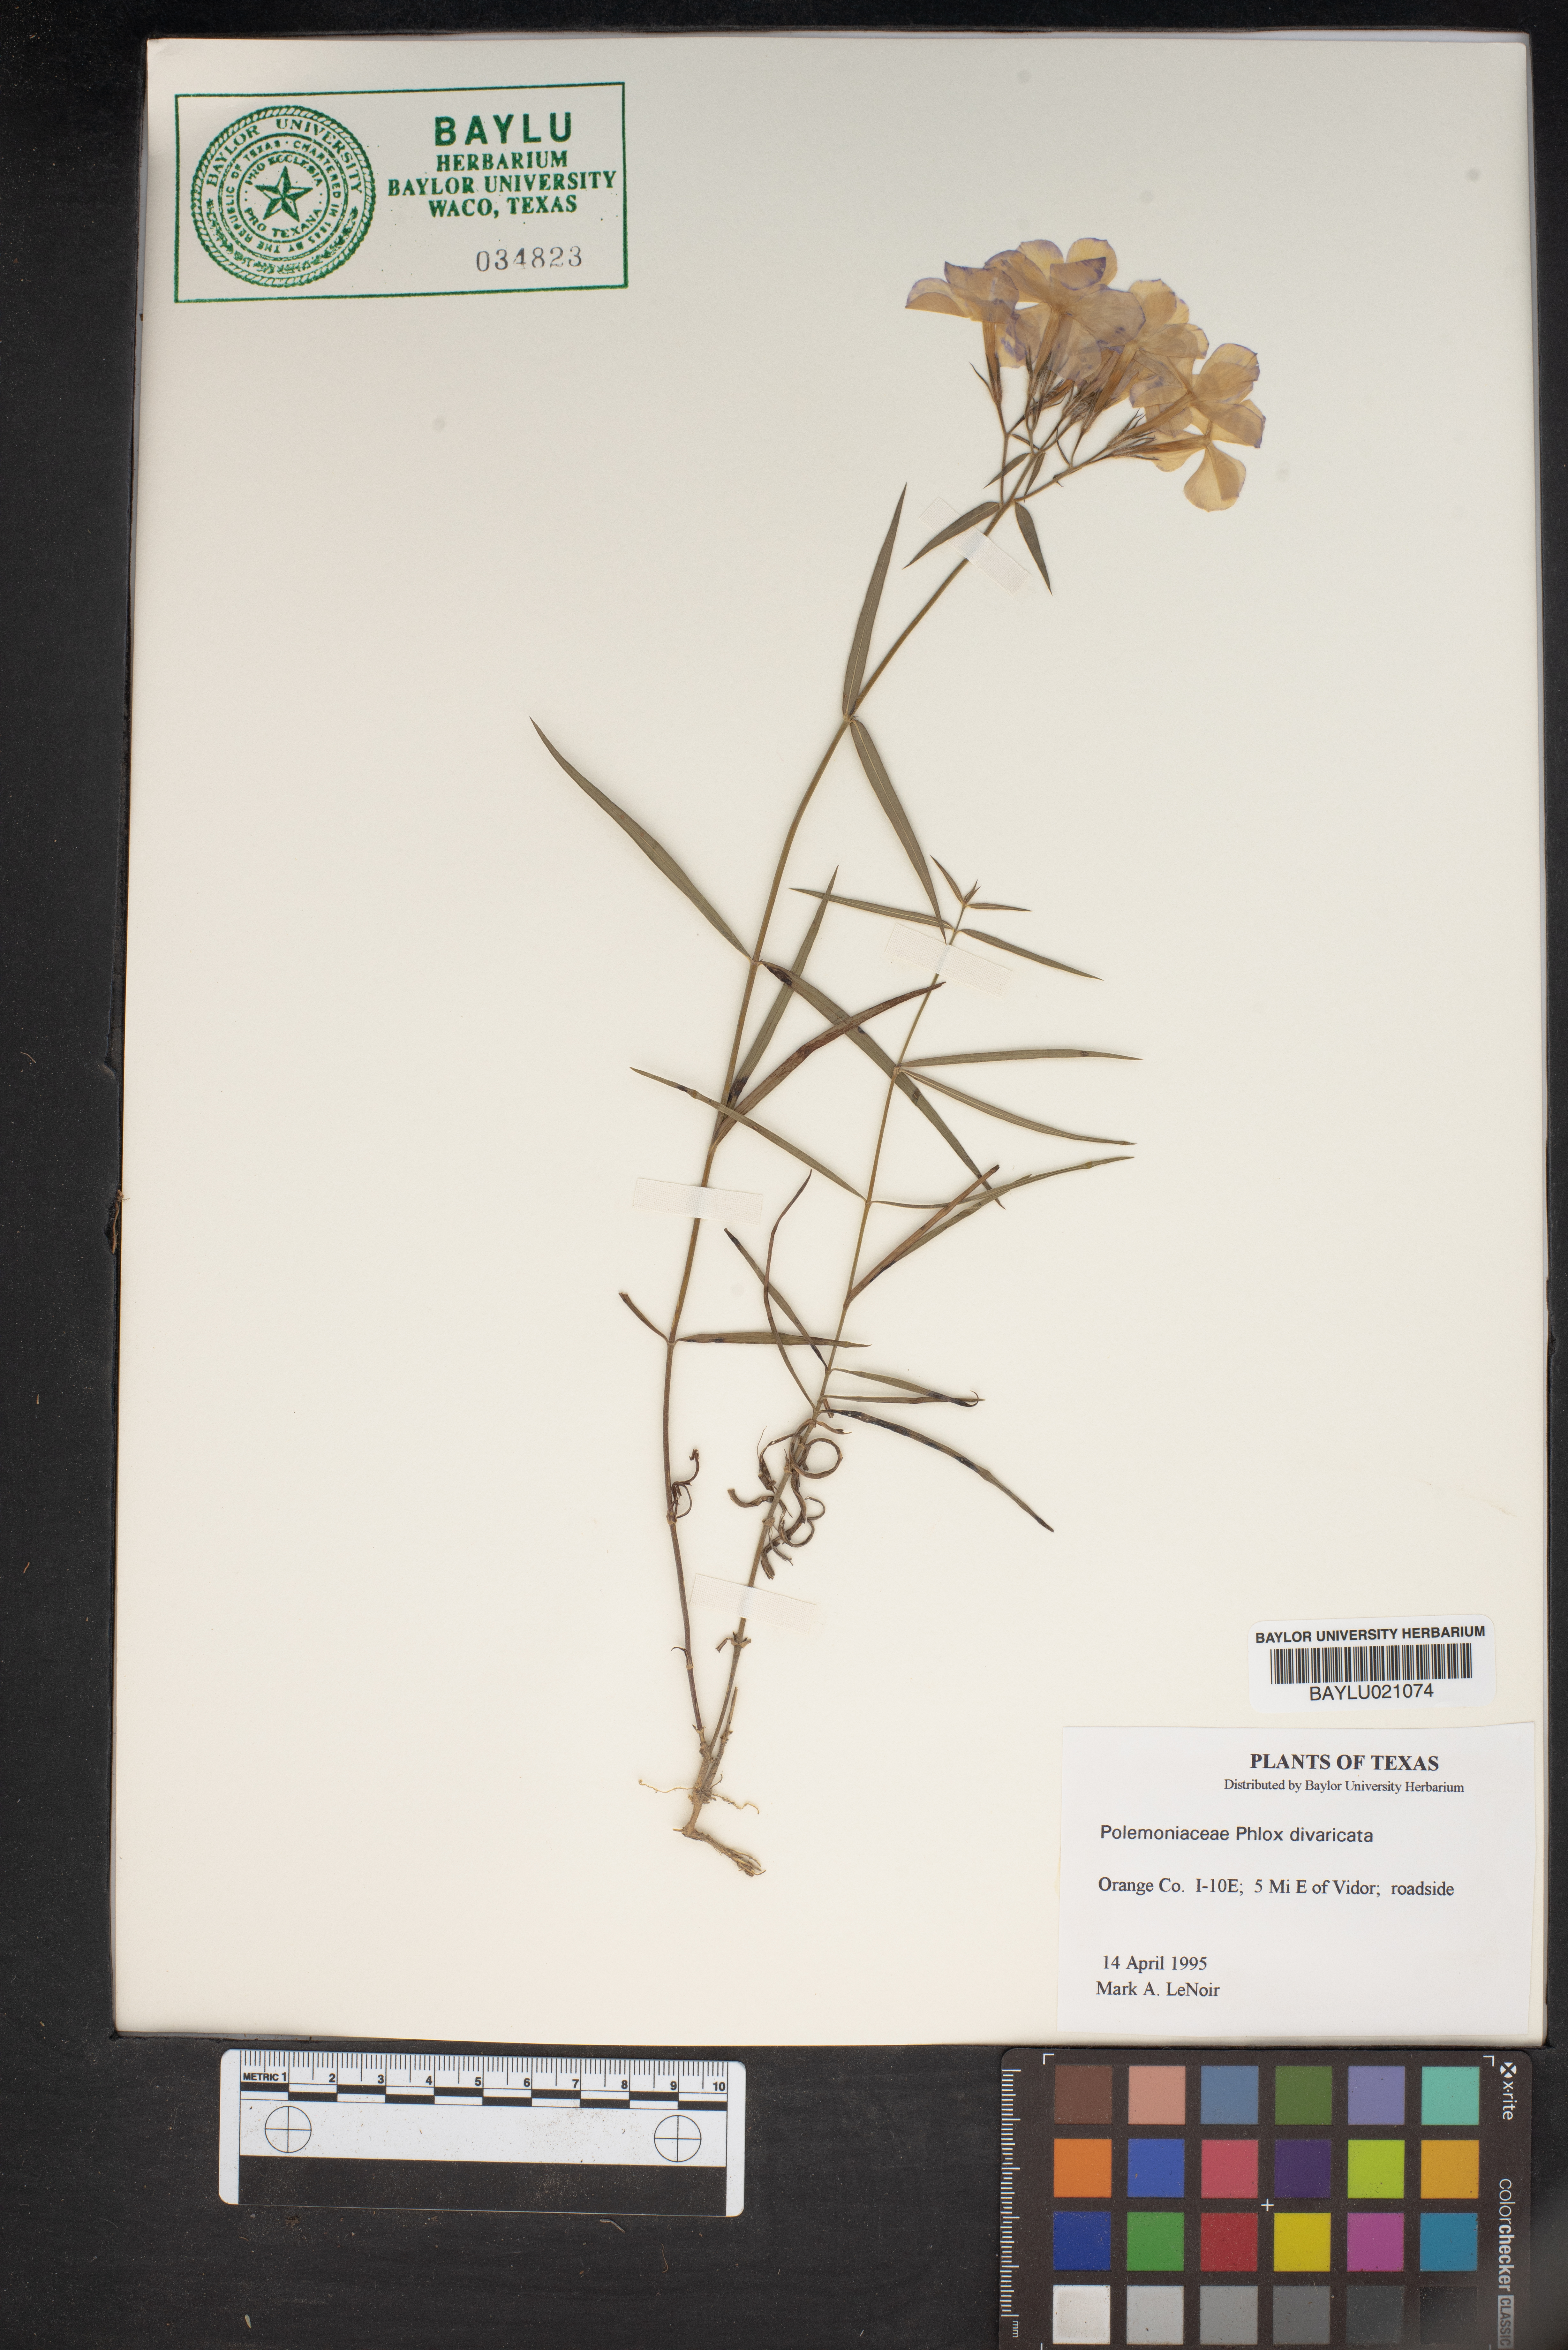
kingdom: Plantae
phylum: Tracheophyta
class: Magnoliopsida
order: Ericales
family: Polemoniaceae
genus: Phlox
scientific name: Phlox divaricata
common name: Blue phlox
